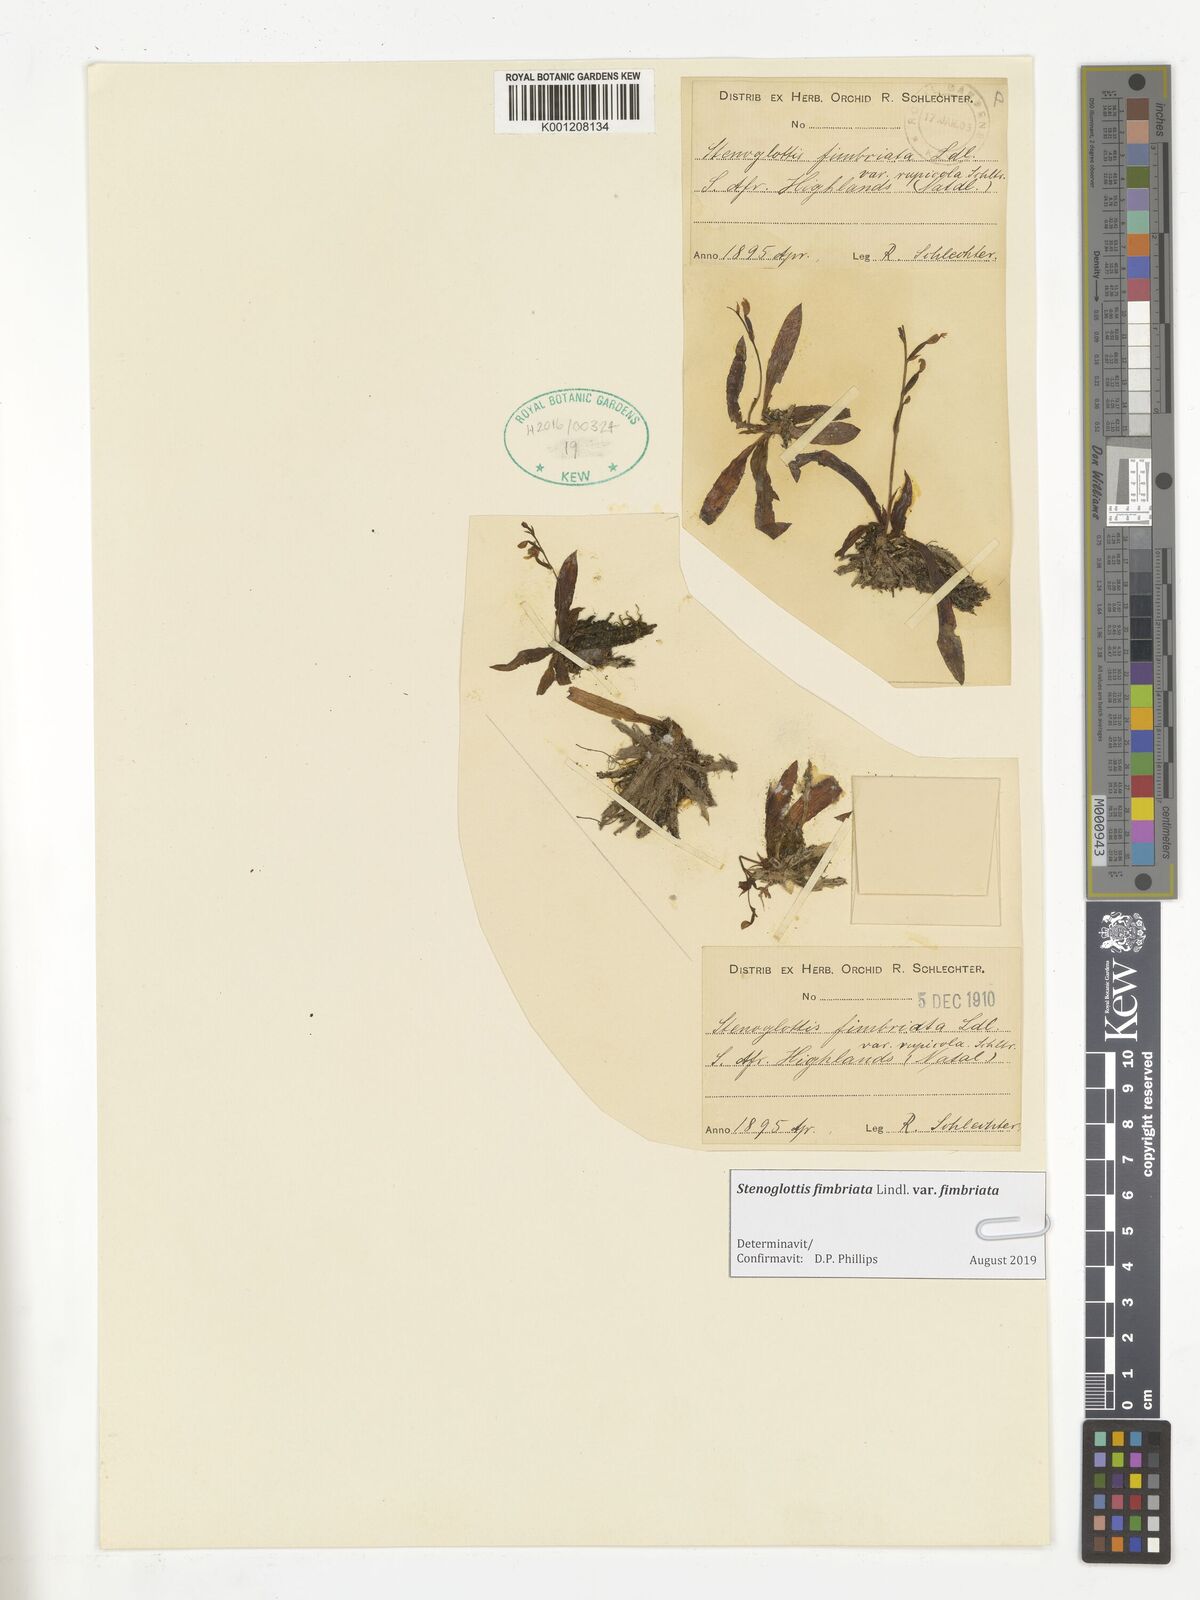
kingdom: Plantae
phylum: Tracheophyta
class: Liliopsida
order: Asparagales
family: Orchidaceae
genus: Stenoglottis
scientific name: Stenoglottis fimbriata
